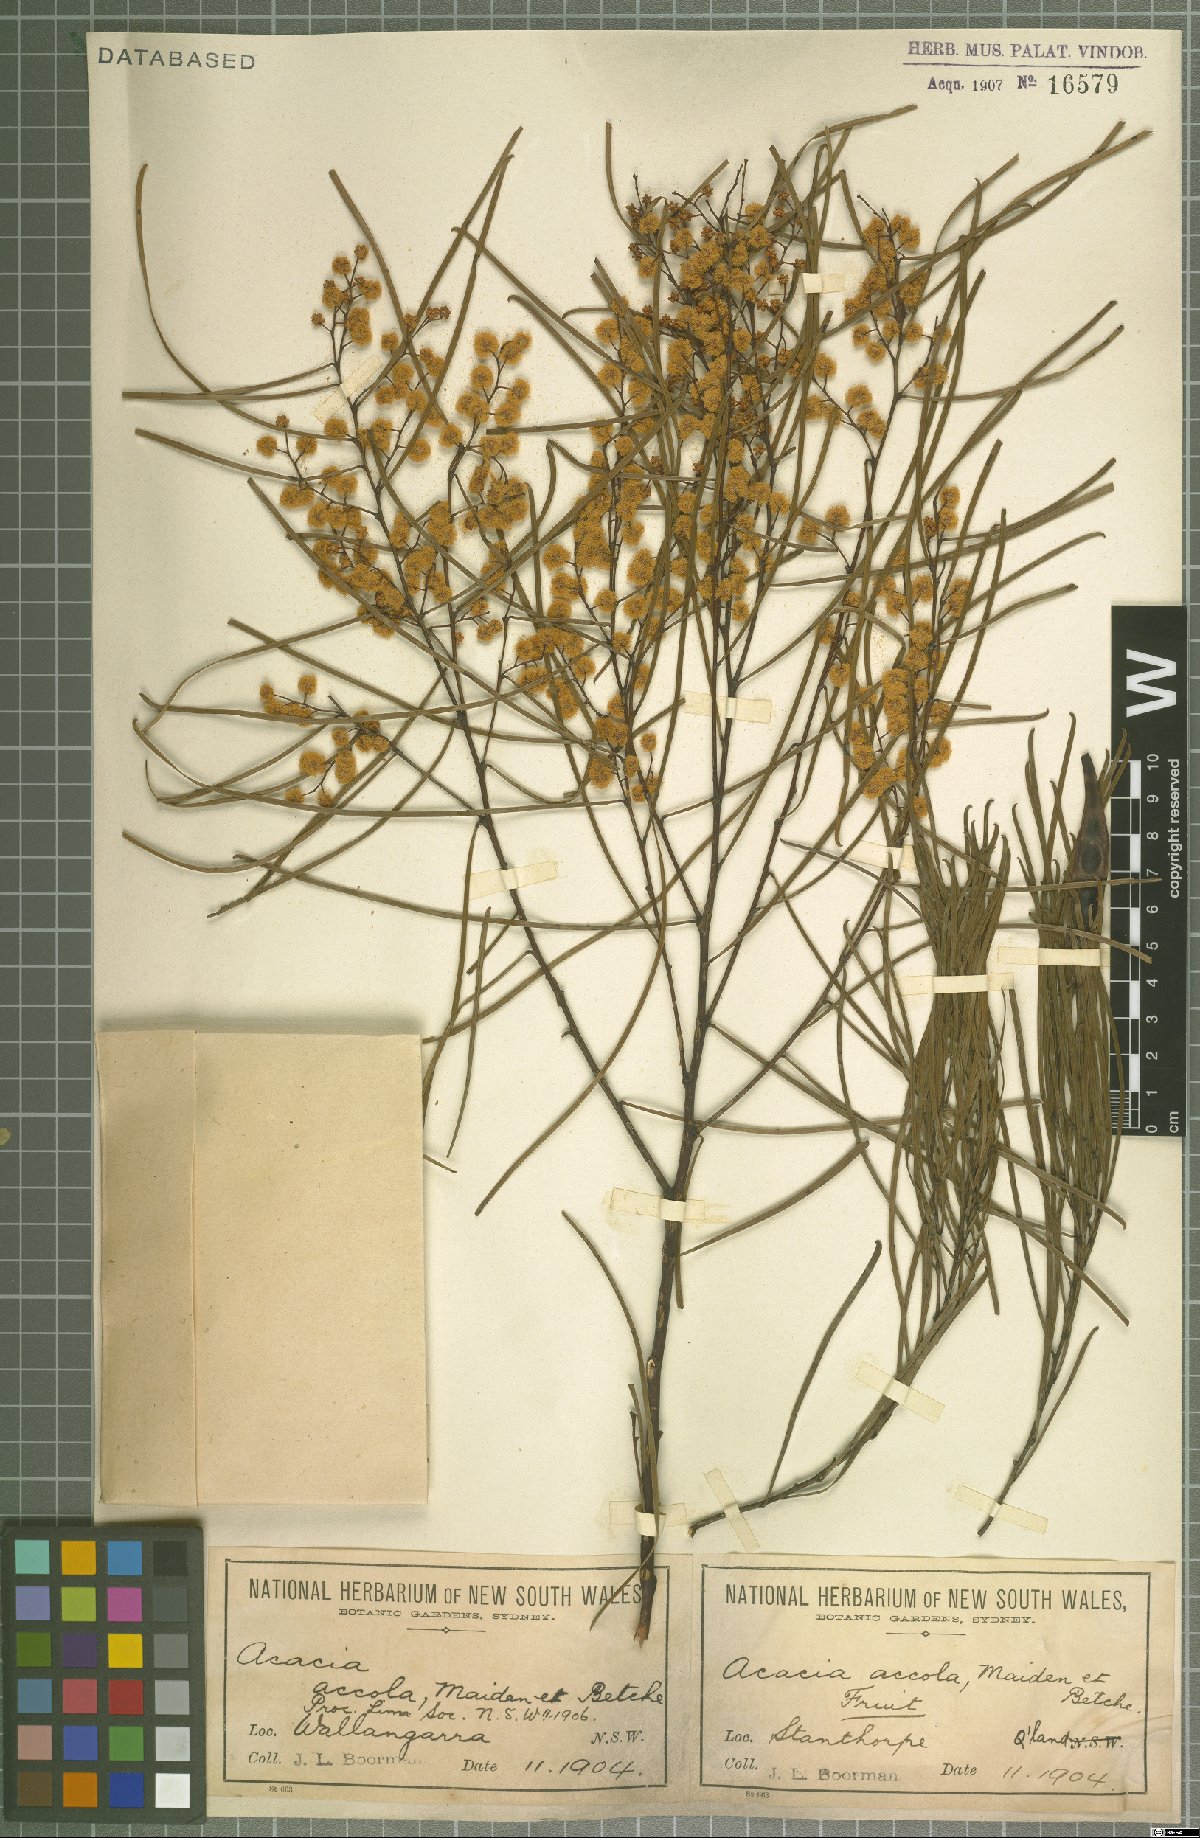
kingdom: Plantae
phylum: Tracheophyta
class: Magnoliopsida
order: Fabales
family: Fabaceae
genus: Acacia
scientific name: Acacia adunca
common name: Wallangarra wattle
